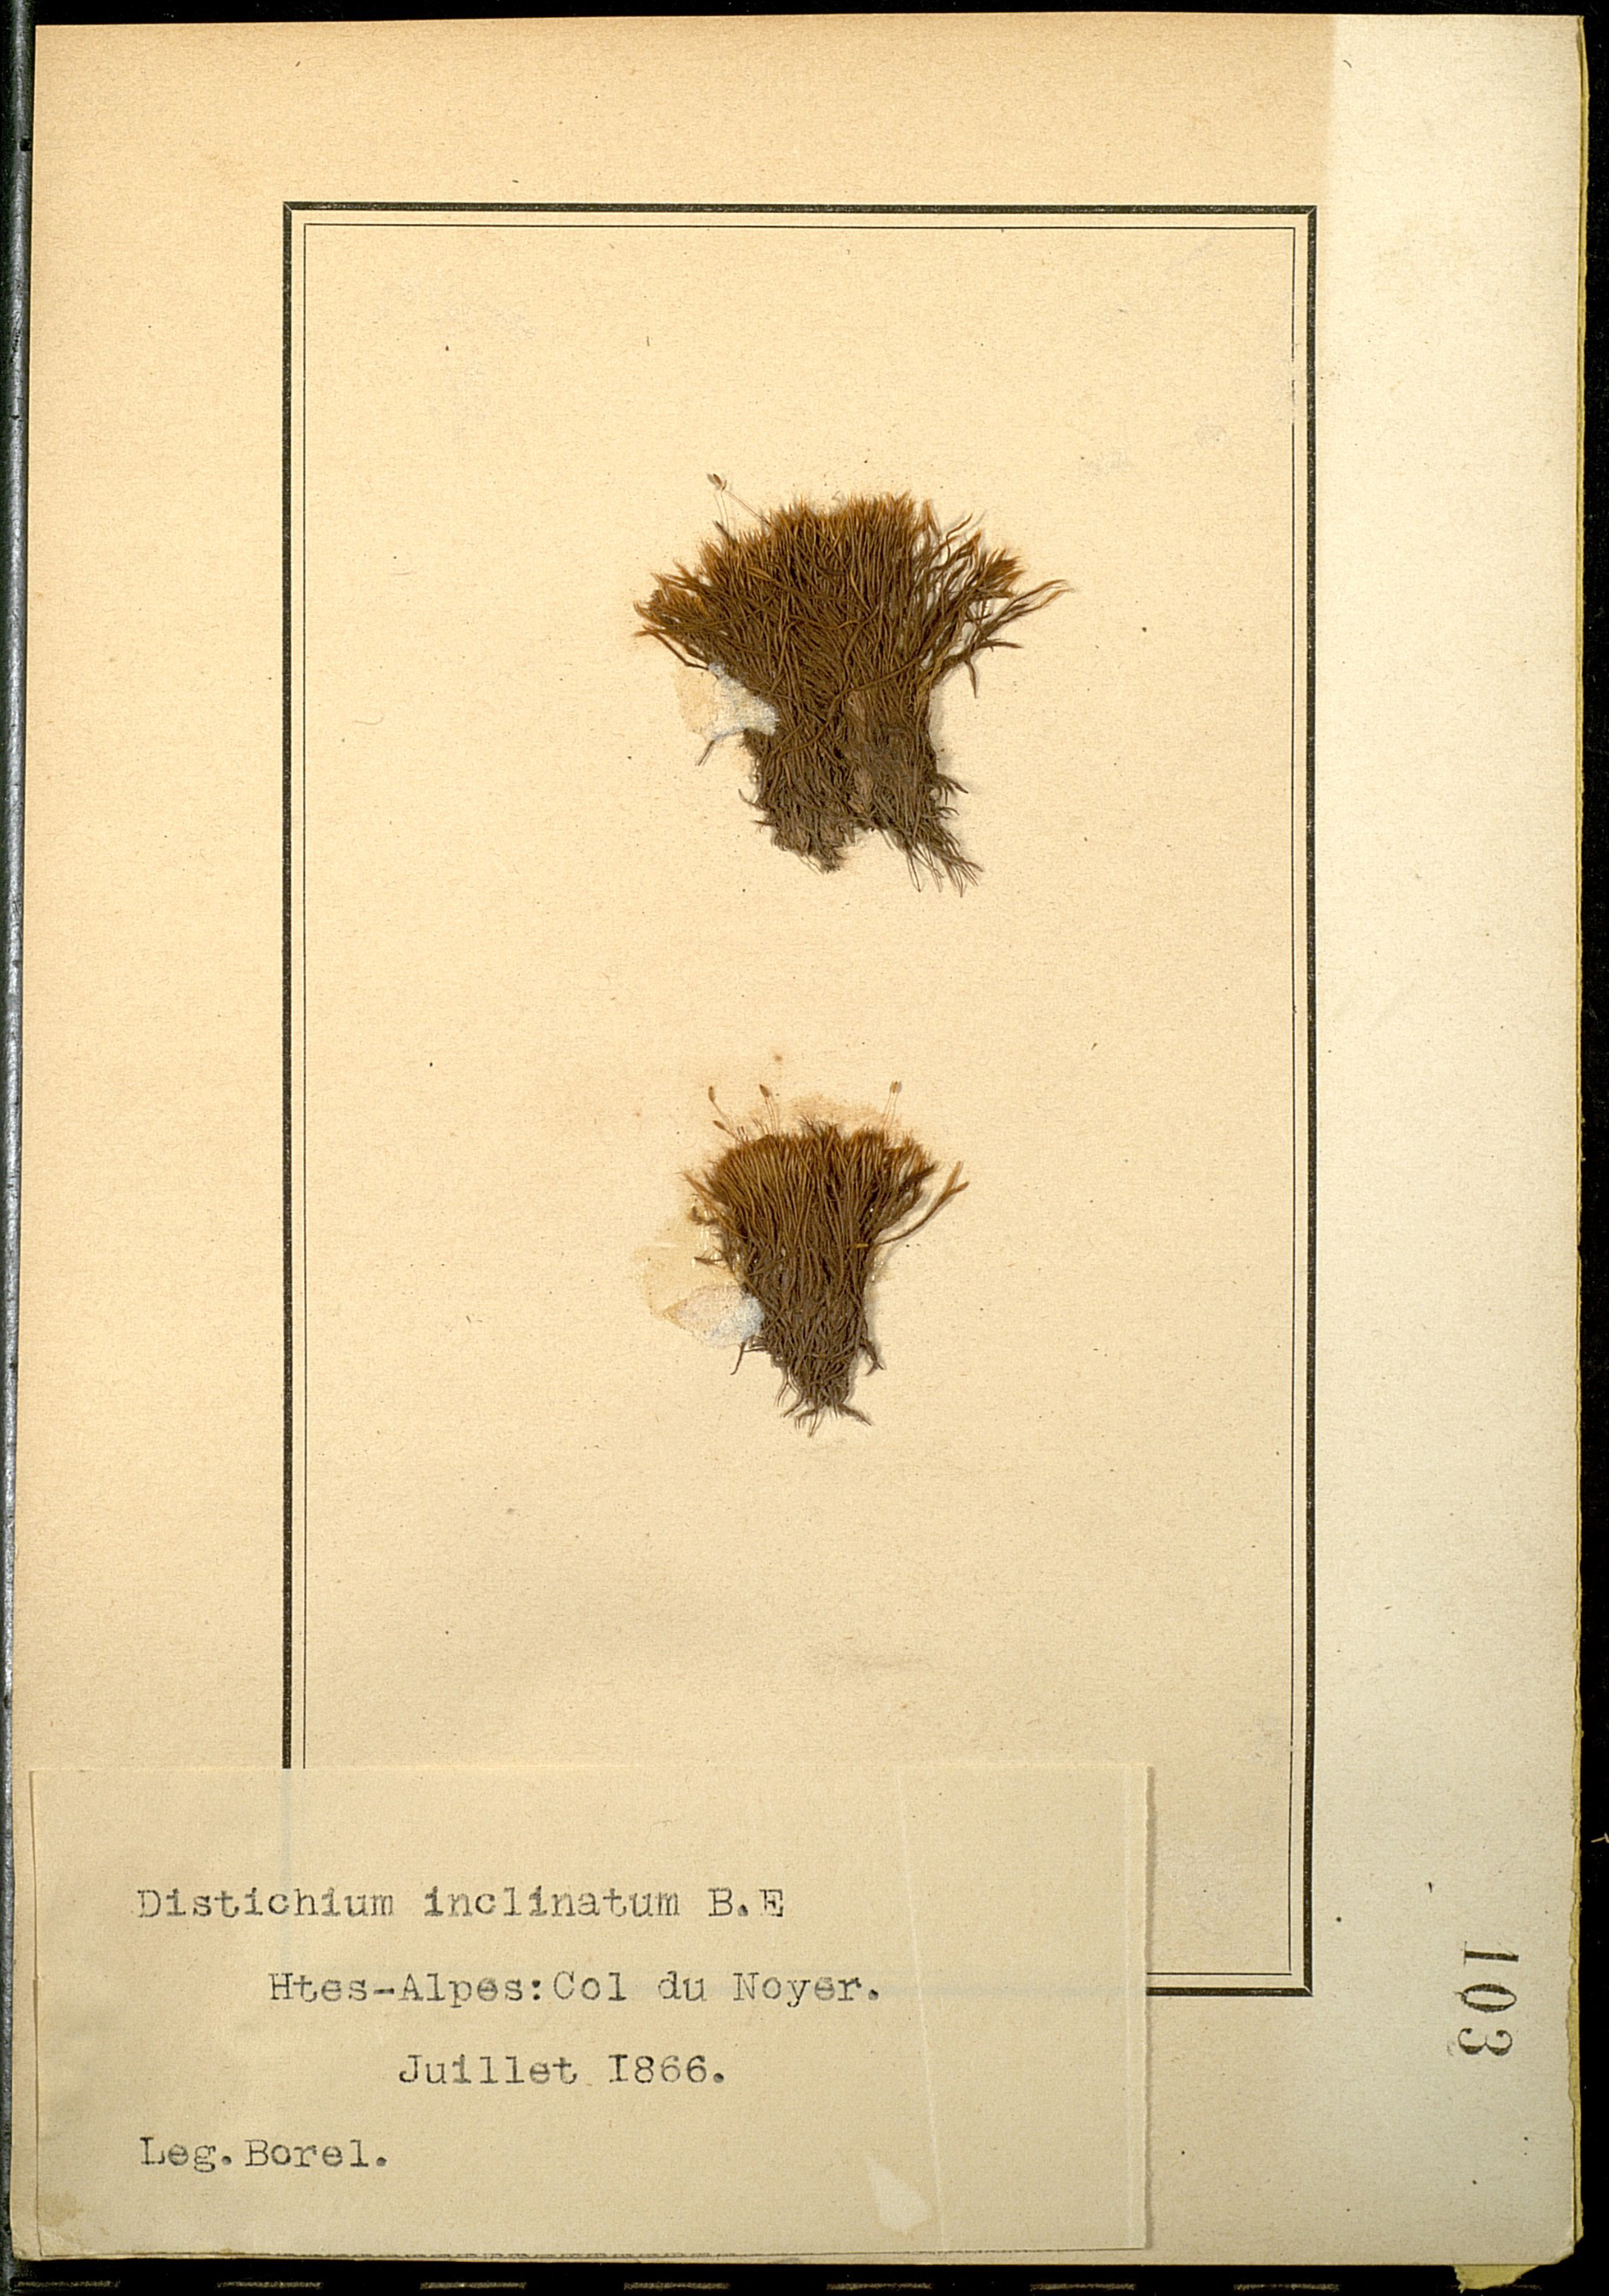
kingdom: Plantae
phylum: Bryophyta
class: Bryopsida
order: Scouleriales
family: Distichiaceae
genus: Distichium
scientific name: Distichium inclinatum
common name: Inclined iris moss
